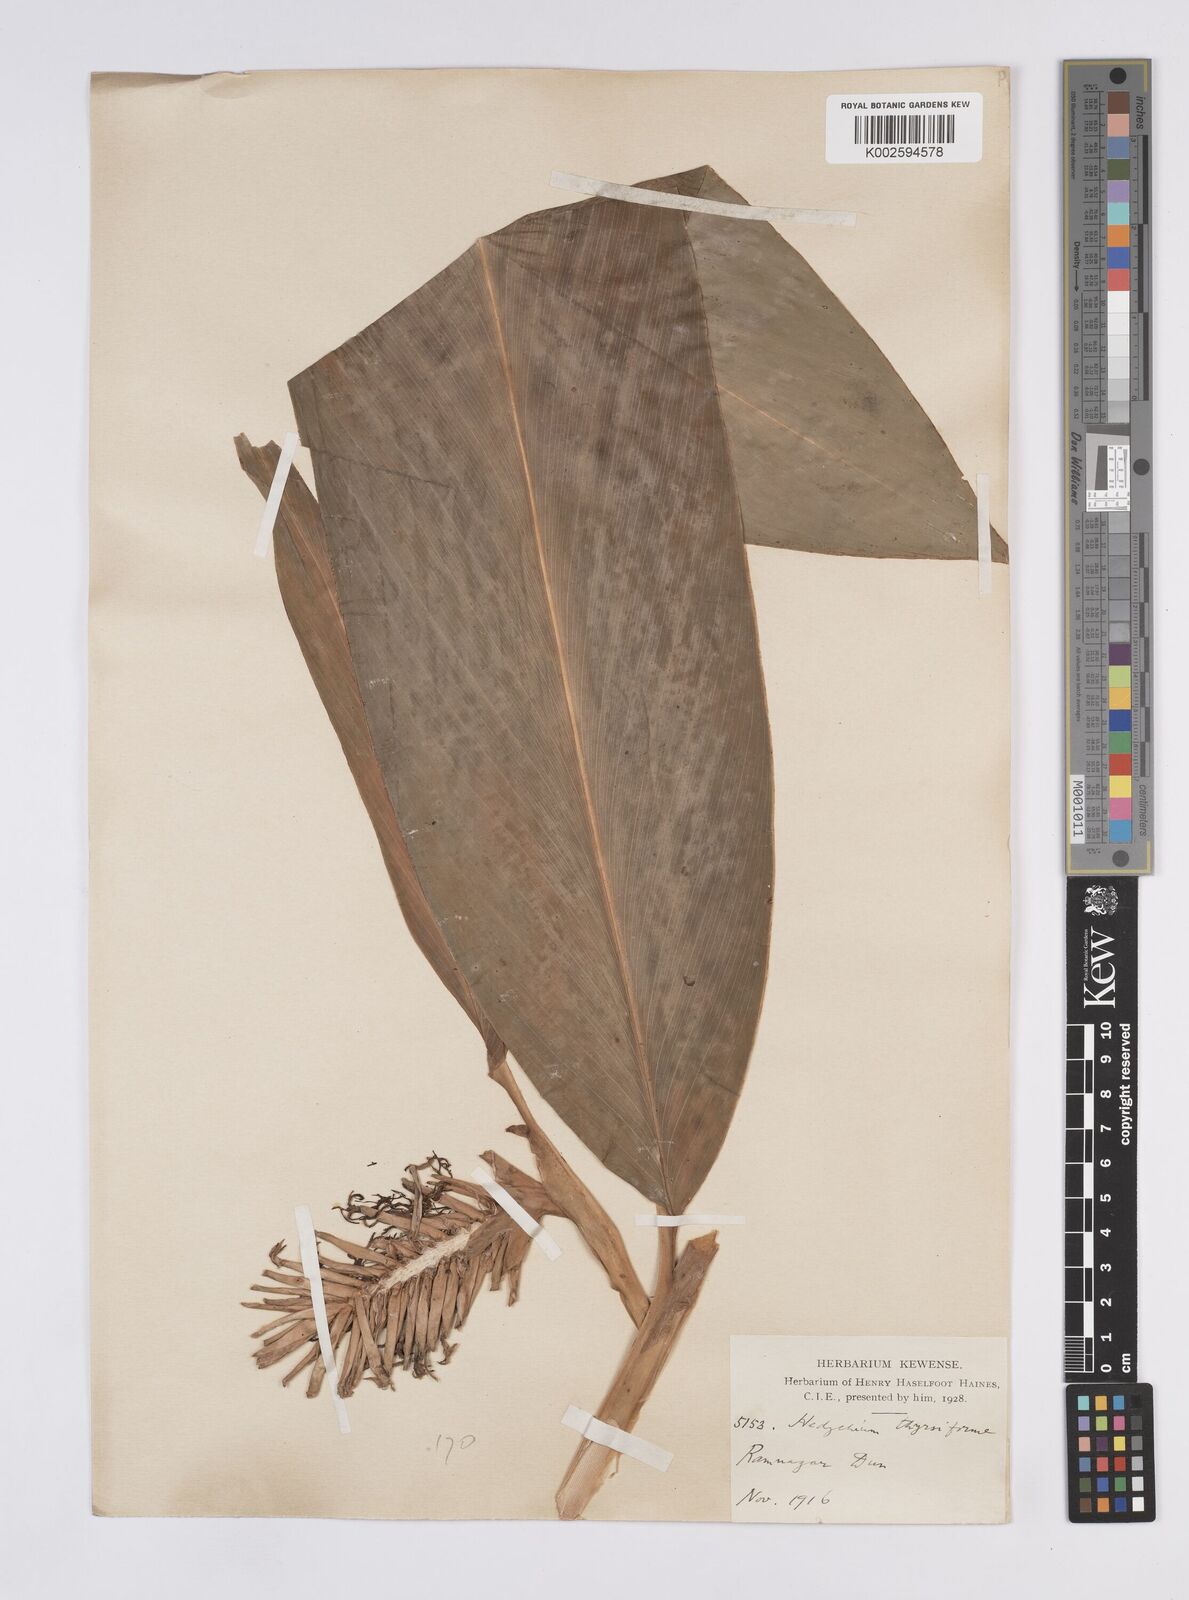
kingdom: Plantae
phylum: Tracheophyta
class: Liliopsida
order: Zingiberales
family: Zingiberaceae
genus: Hedychium
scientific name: Hedychium
